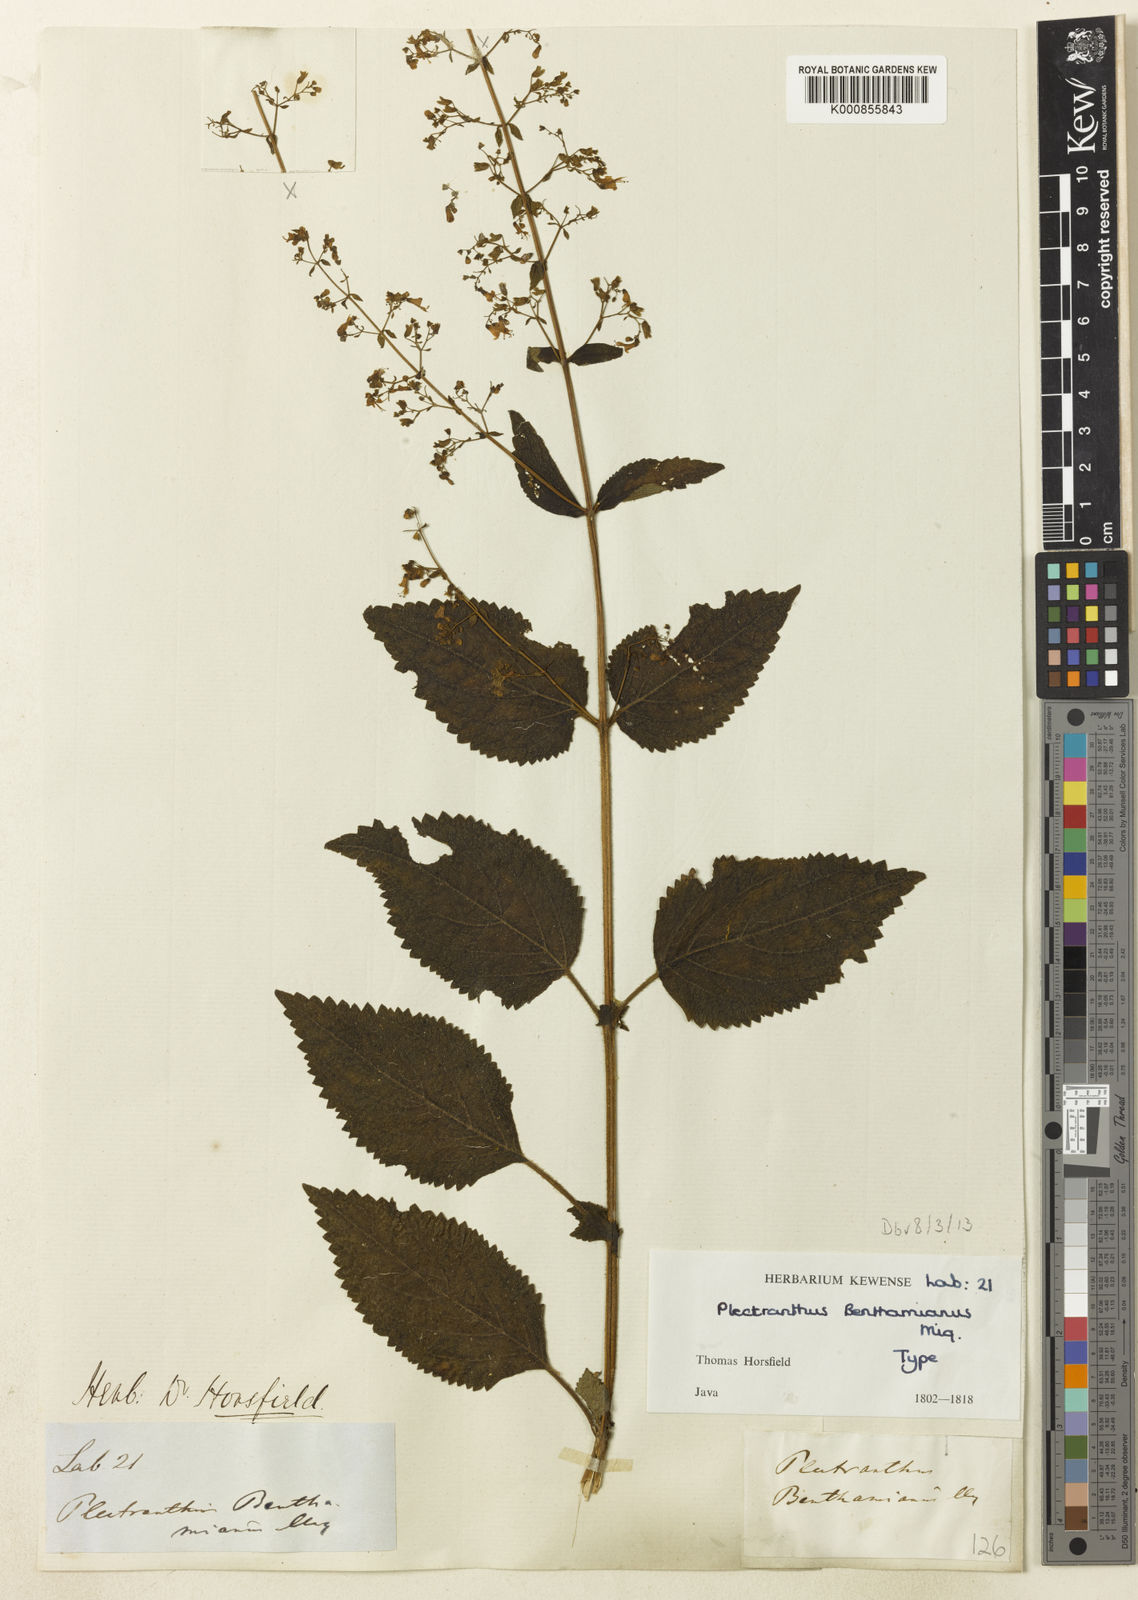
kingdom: Plantae
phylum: Tracheophyta
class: Magnoliopsida
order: Lamiales
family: Lamiaceae
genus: Isodon
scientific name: Isodon teysmannii
